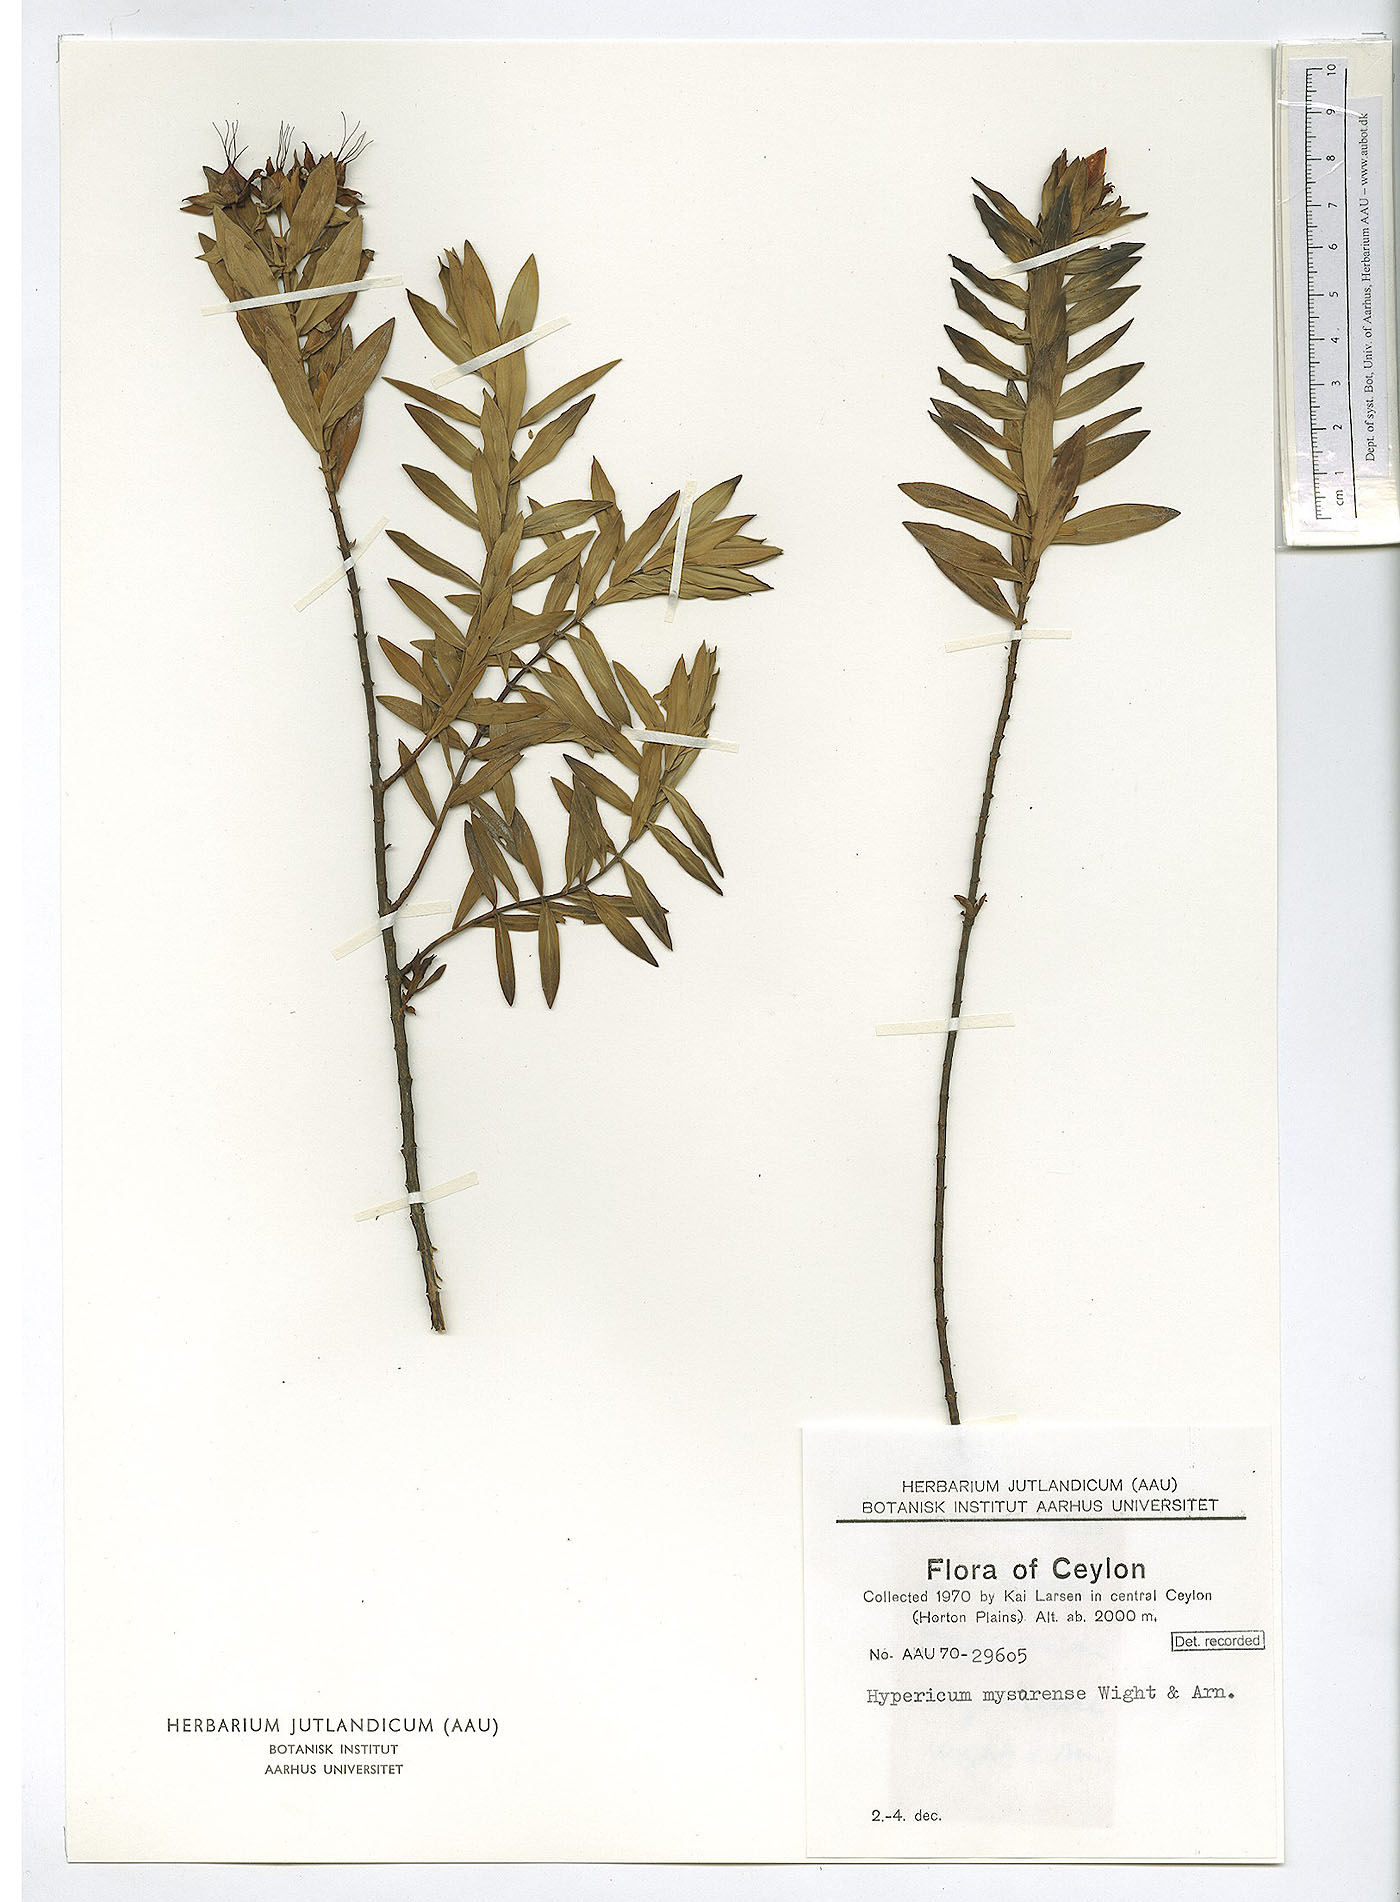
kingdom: Plantae
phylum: Tracheophyta
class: Magnoliopsida
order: Malpighiales
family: Hypericaceae
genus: Hypericum
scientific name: Hypericum mysorense
